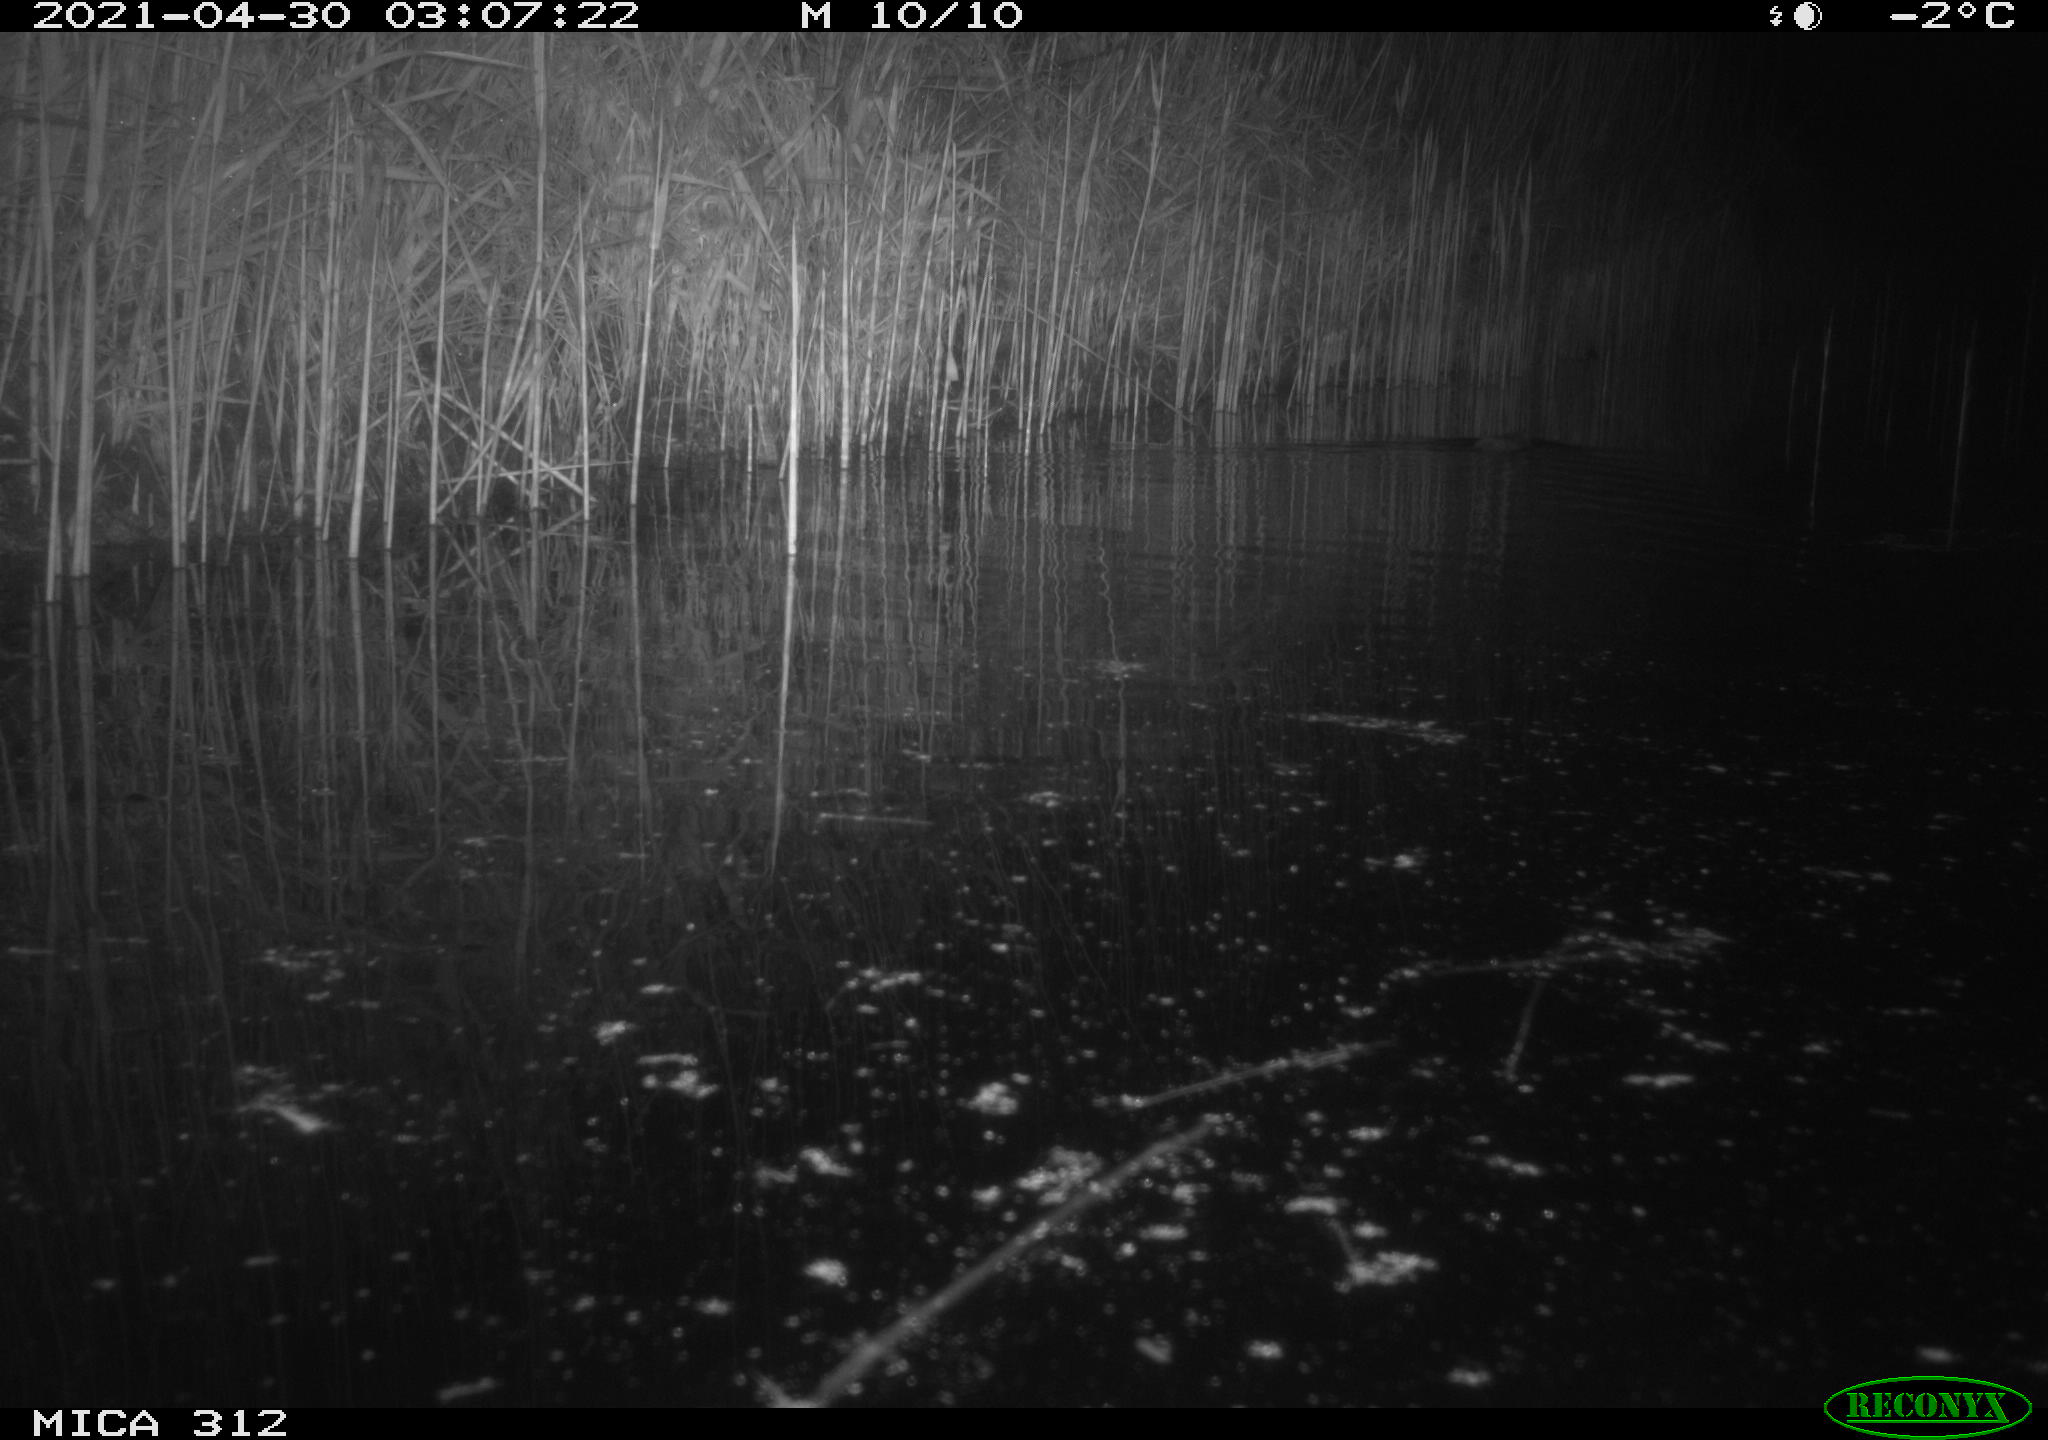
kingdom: Animalia
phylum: Chordata
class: Mammalia
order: Rodentia
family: Muridae
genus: Rattus
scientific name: Rattus norvegicus
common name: Brown rat
